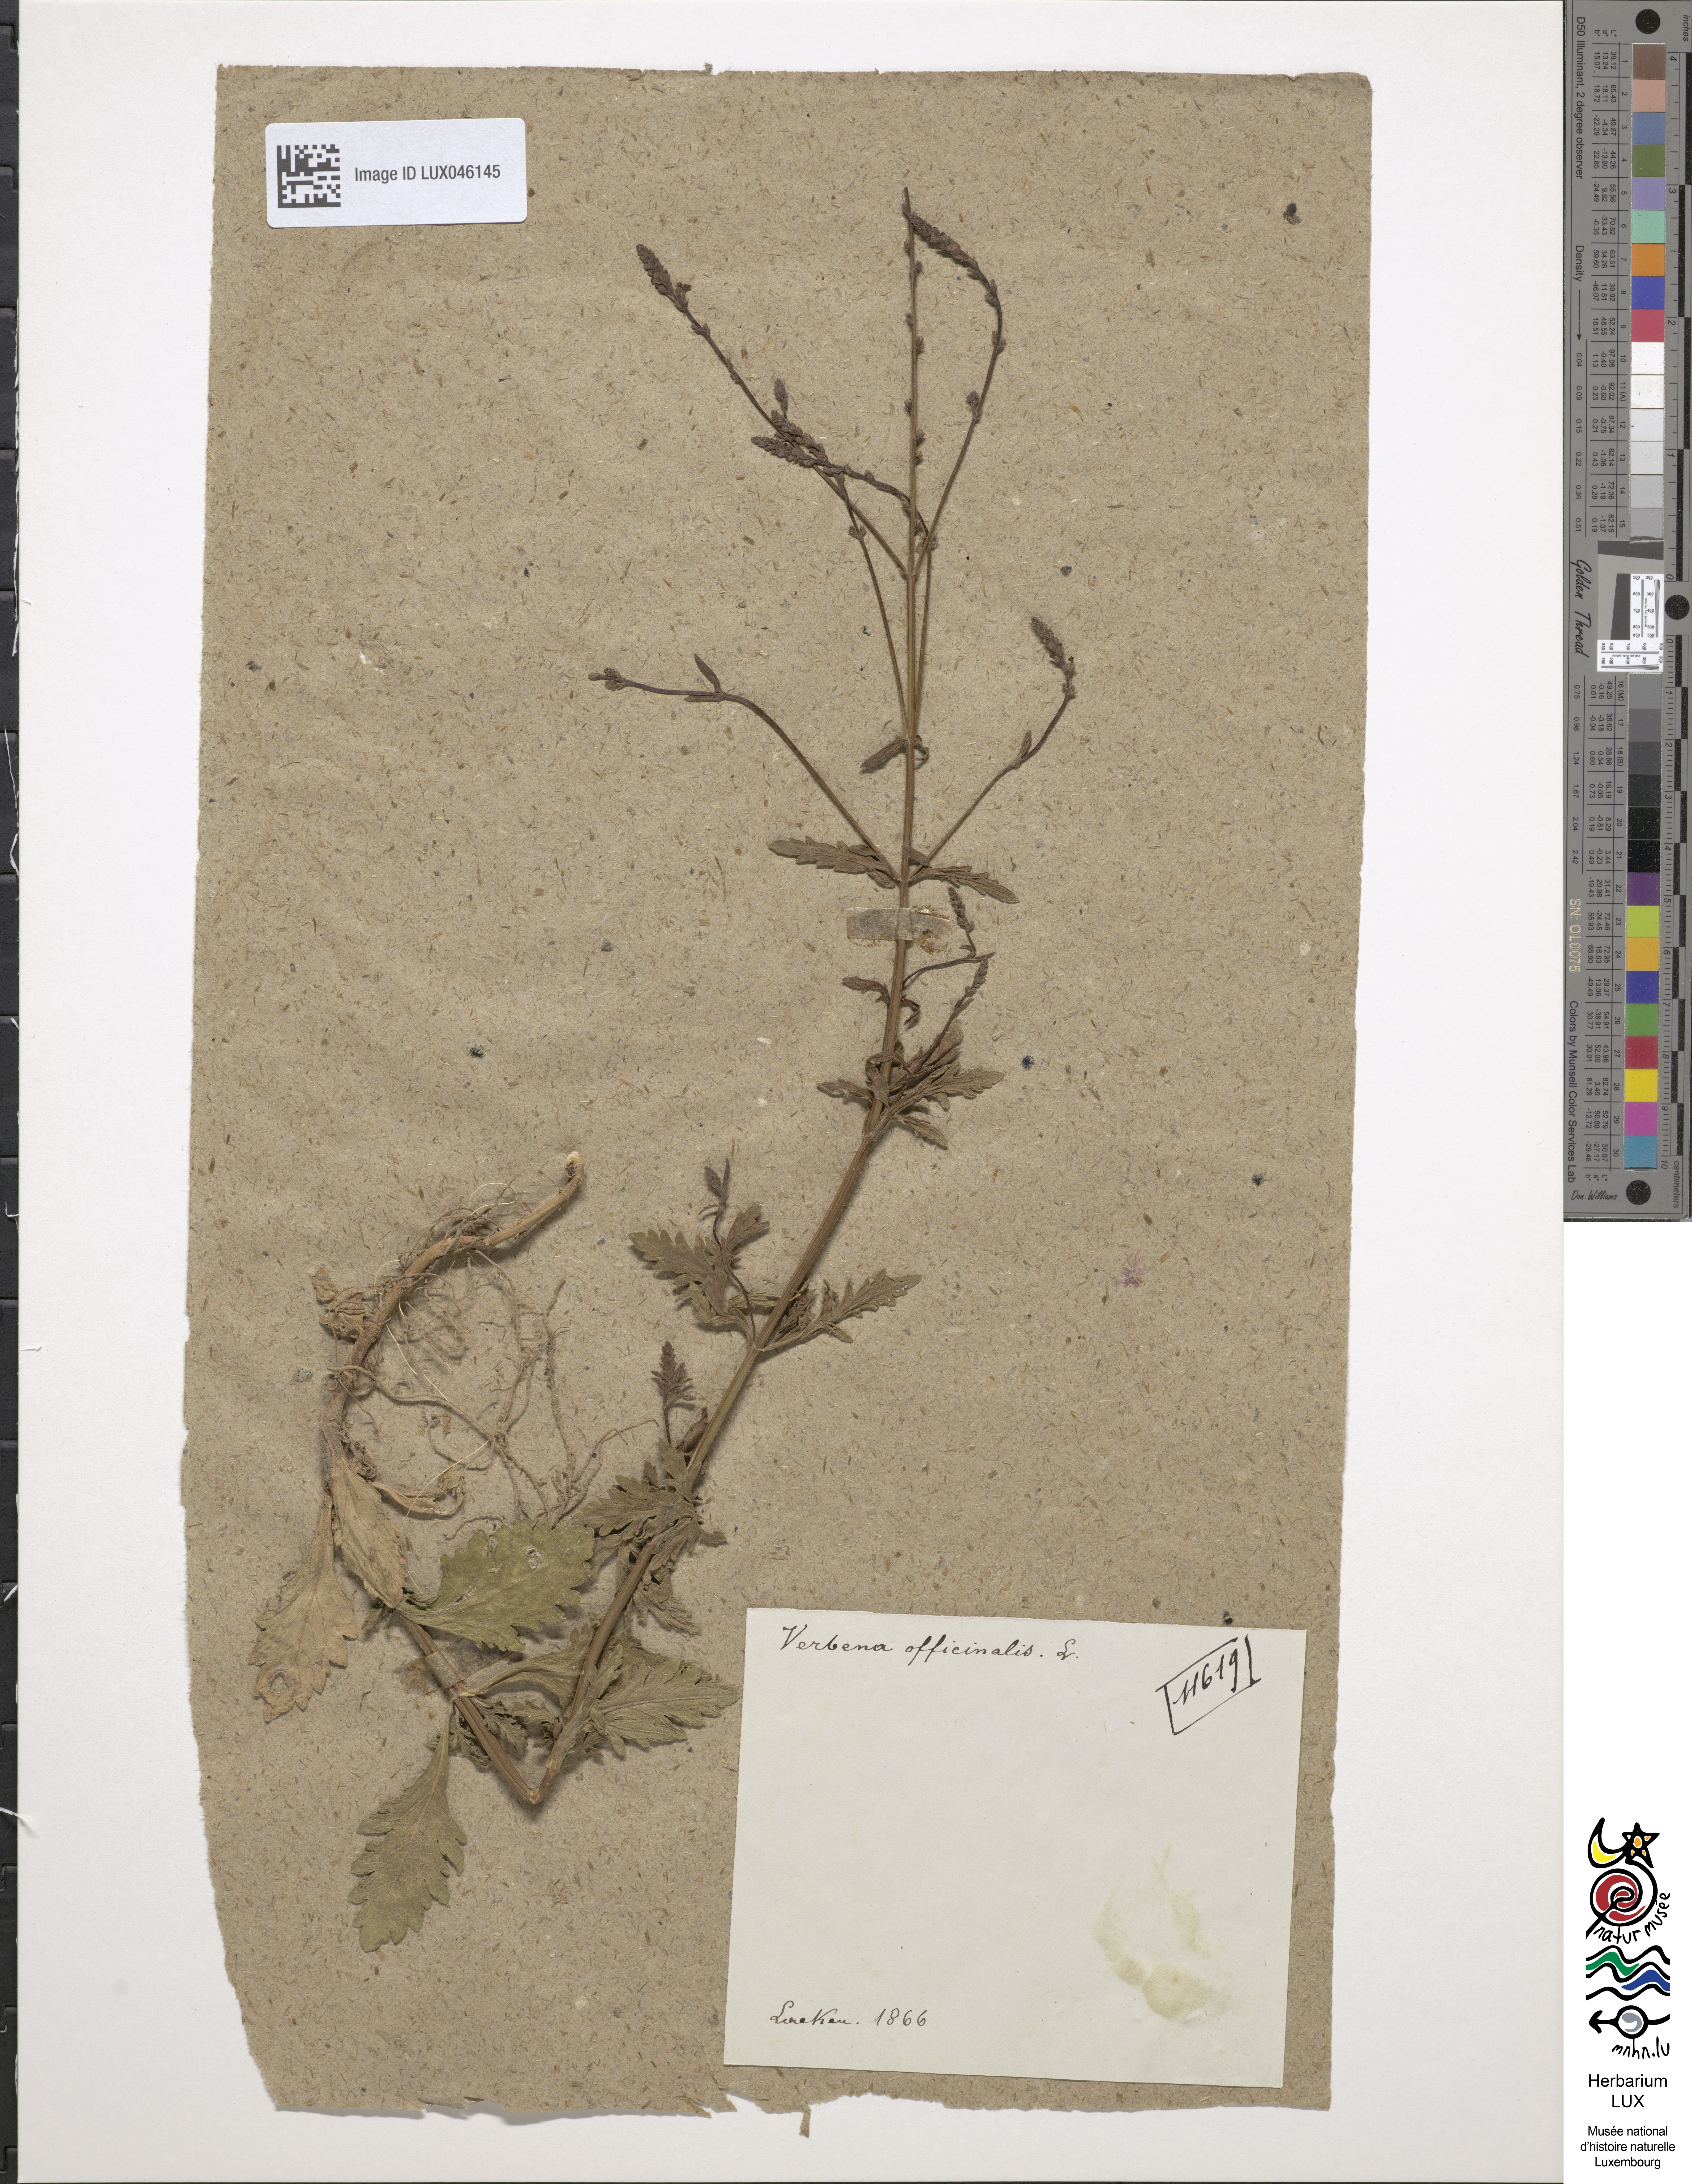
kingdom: Plantae
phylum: Tracheophyta
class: Magnoliopsida
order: Lamiales
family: Verbenaceae
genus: Verbena
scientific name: Verbena officinalis
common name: Vervain
